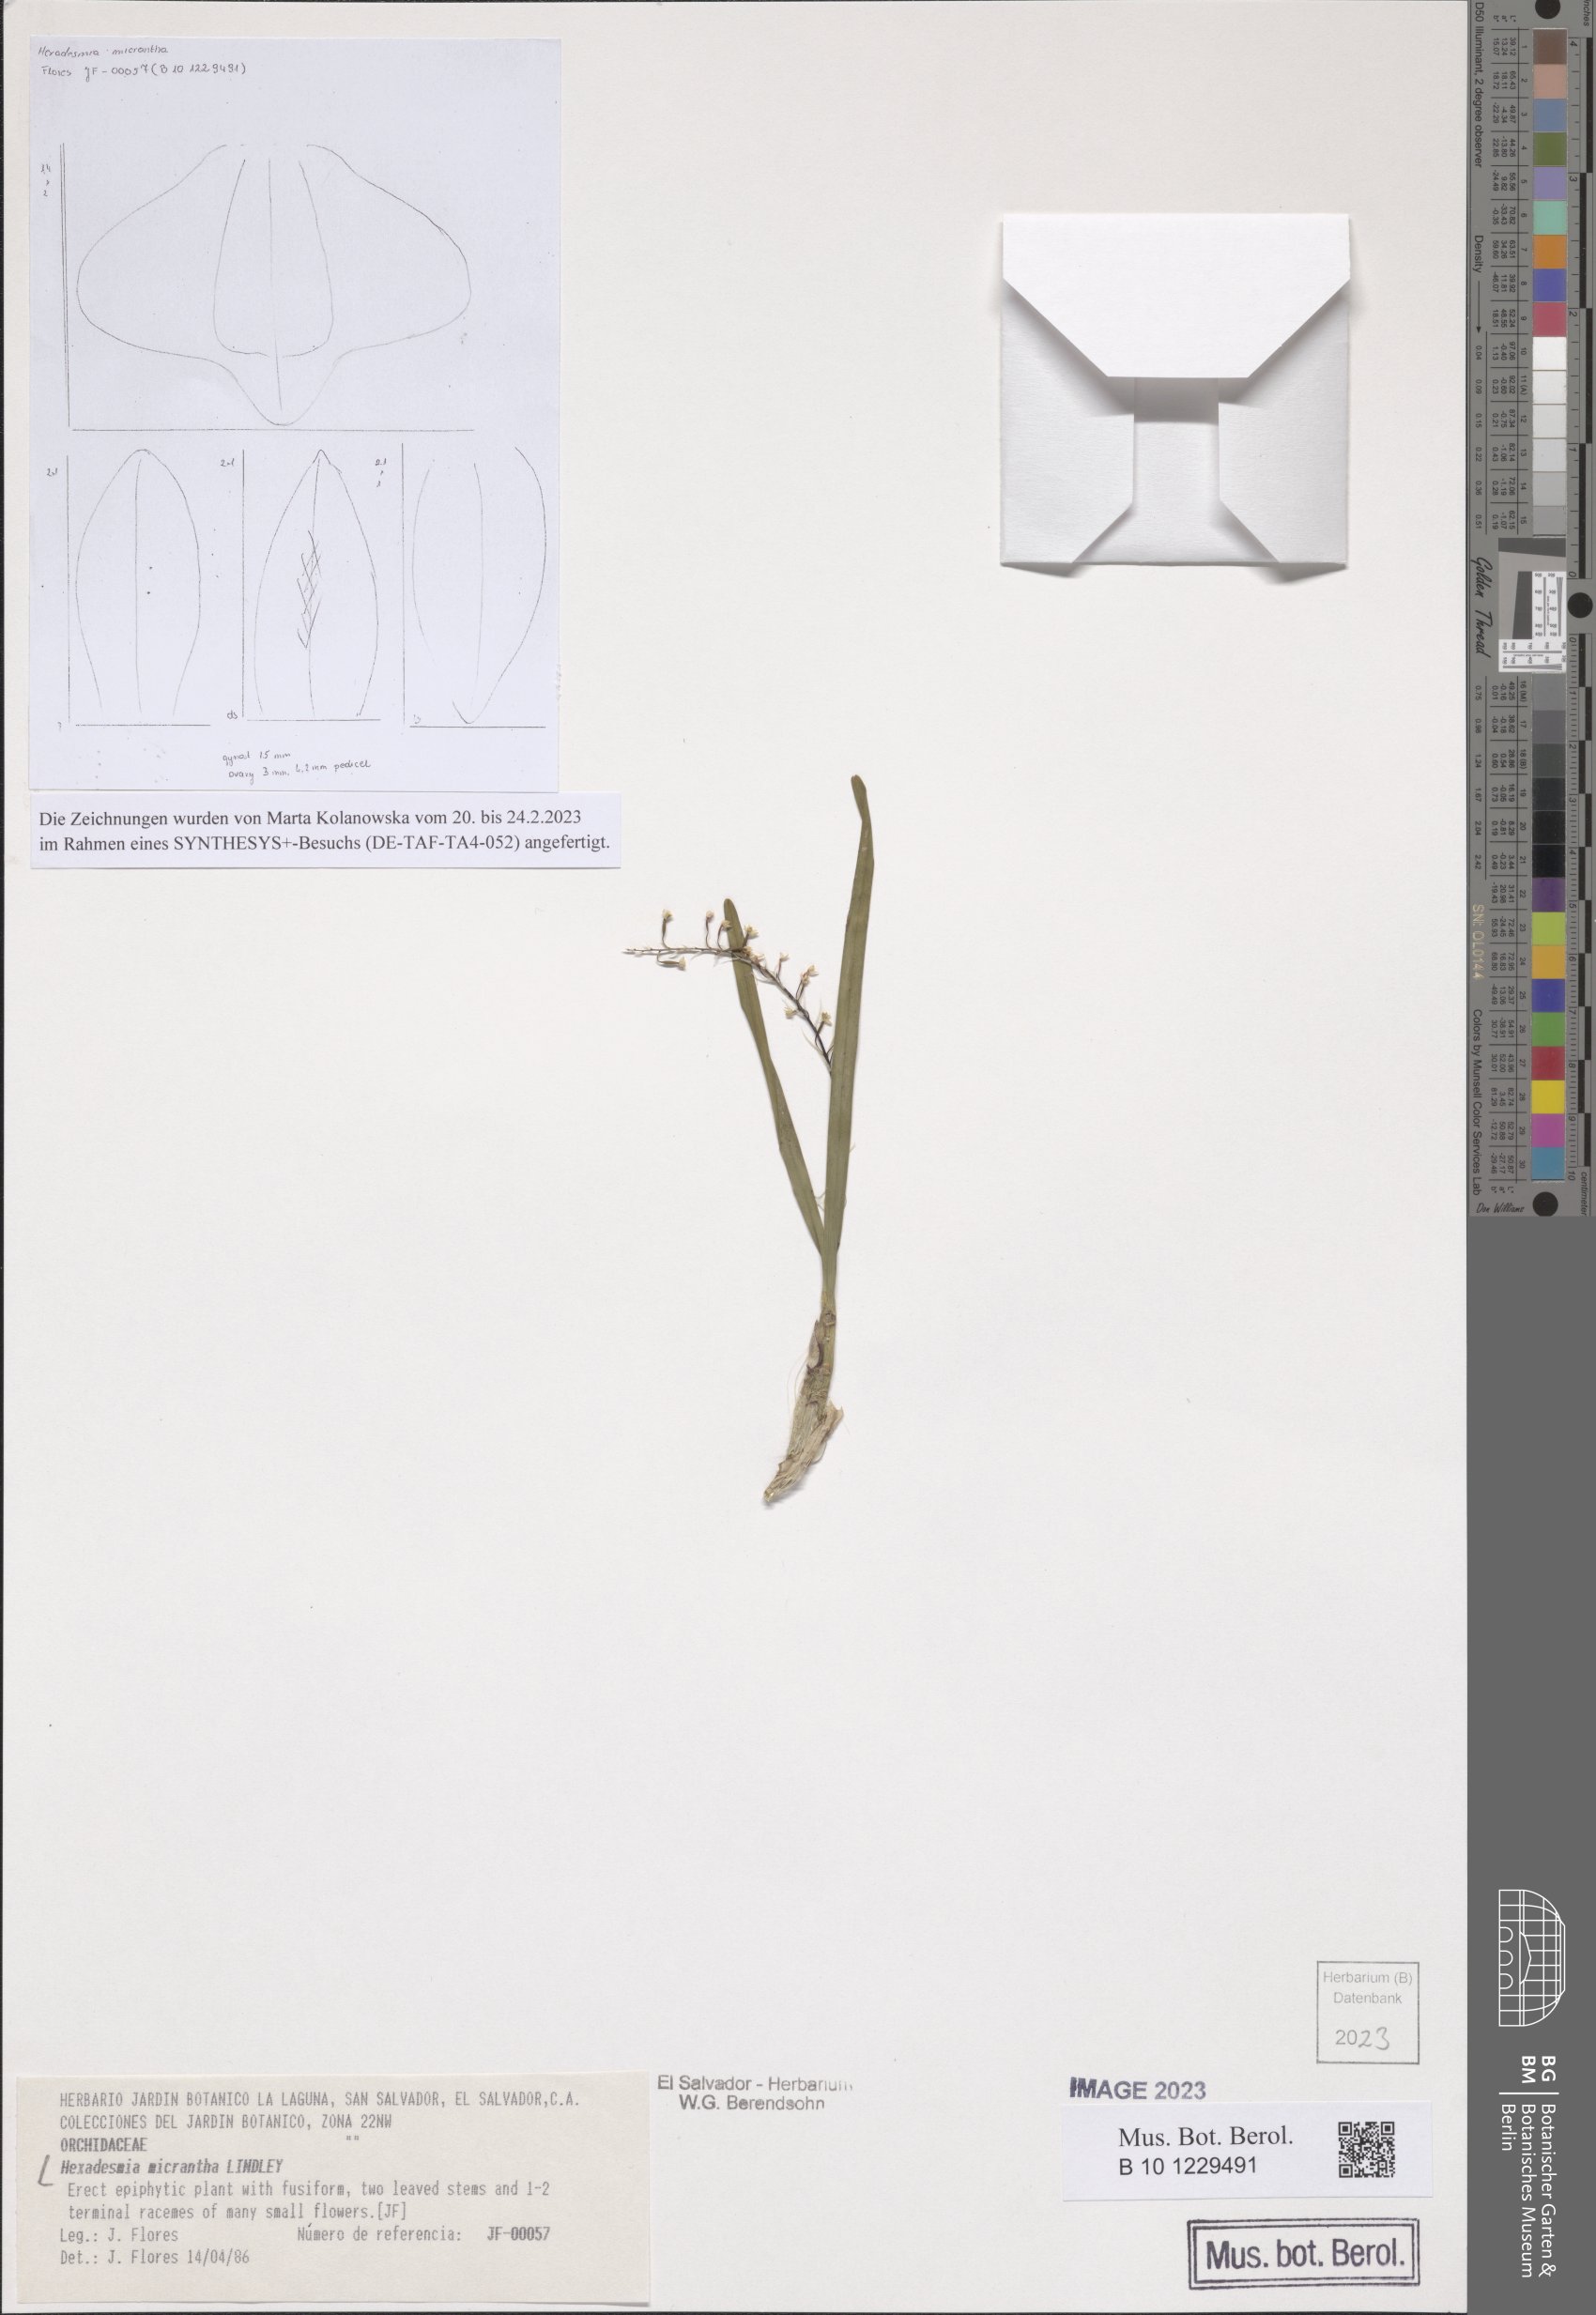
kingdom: Plantae
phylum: Tracheophyta
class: Liliopsida
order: Asparagales
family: Orchidaceae
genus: Scaphyglottis
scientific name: Scaphyglottis micrantha
